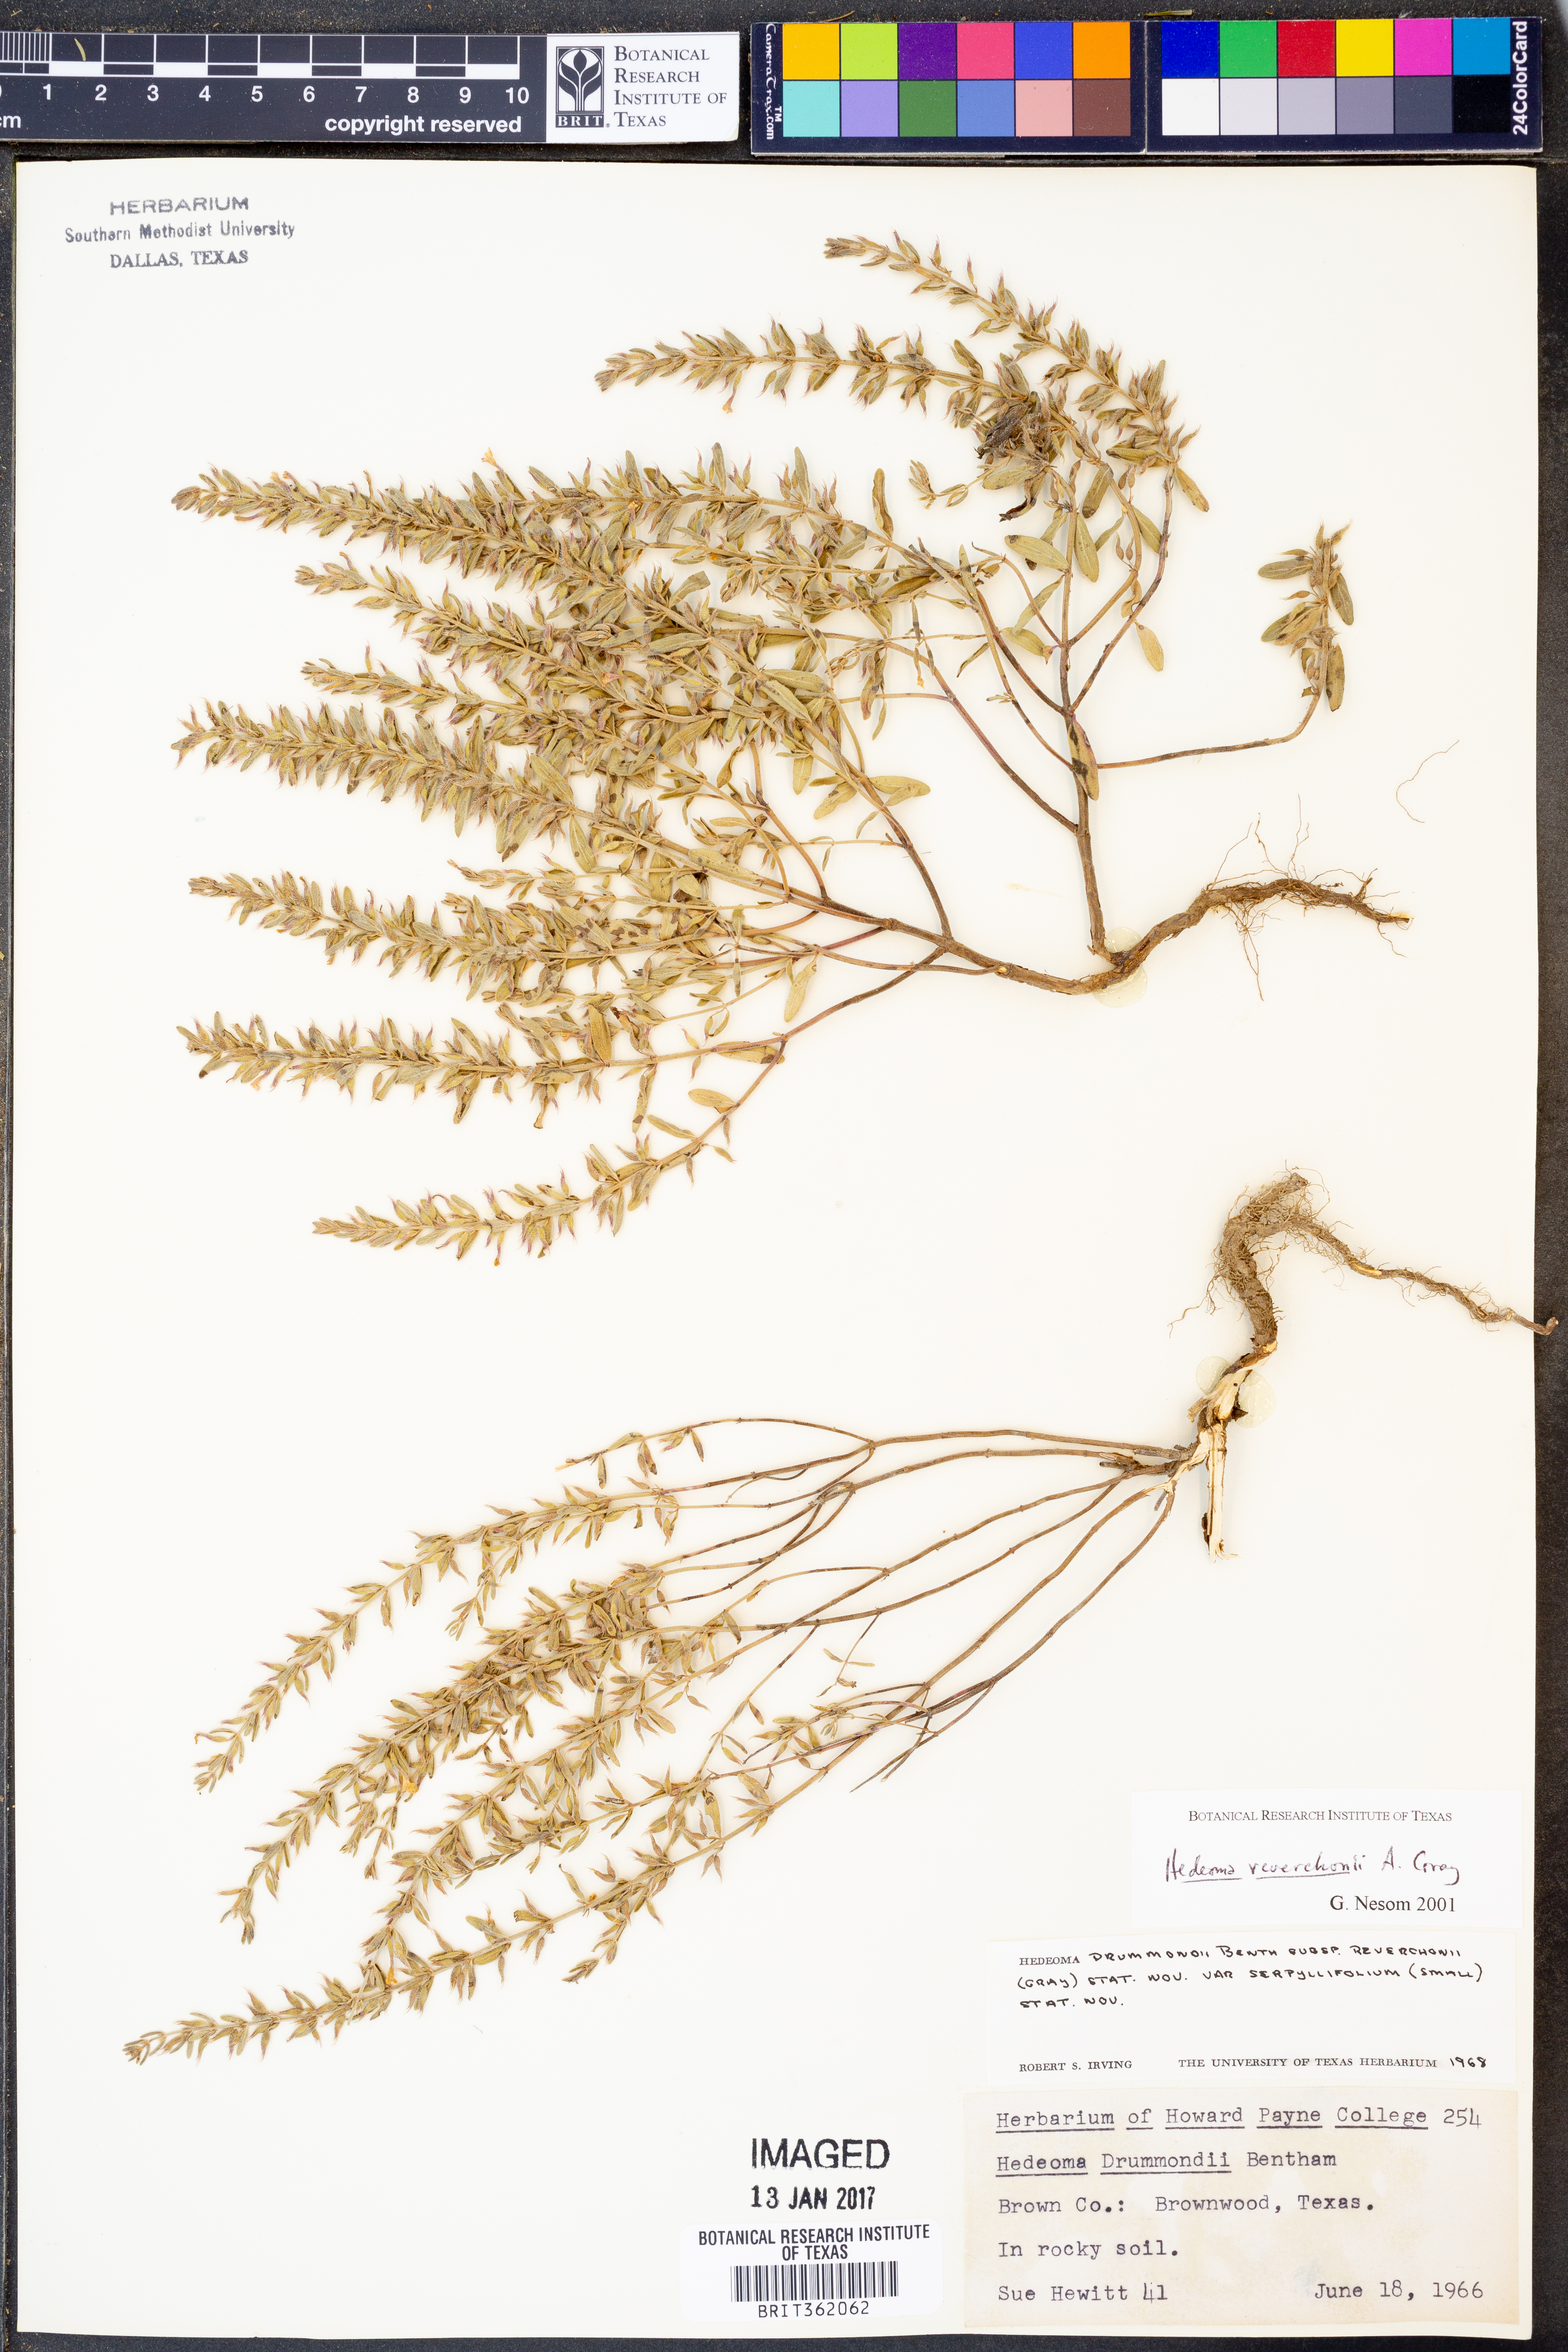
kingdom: Plantae
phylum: Tracheophyta
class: Magnoliopsida
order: Lamiales
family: Lamiaceae
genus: Hedeoma
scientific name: Hedeoma reverchonii
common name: Reverchon's false penny-royal
